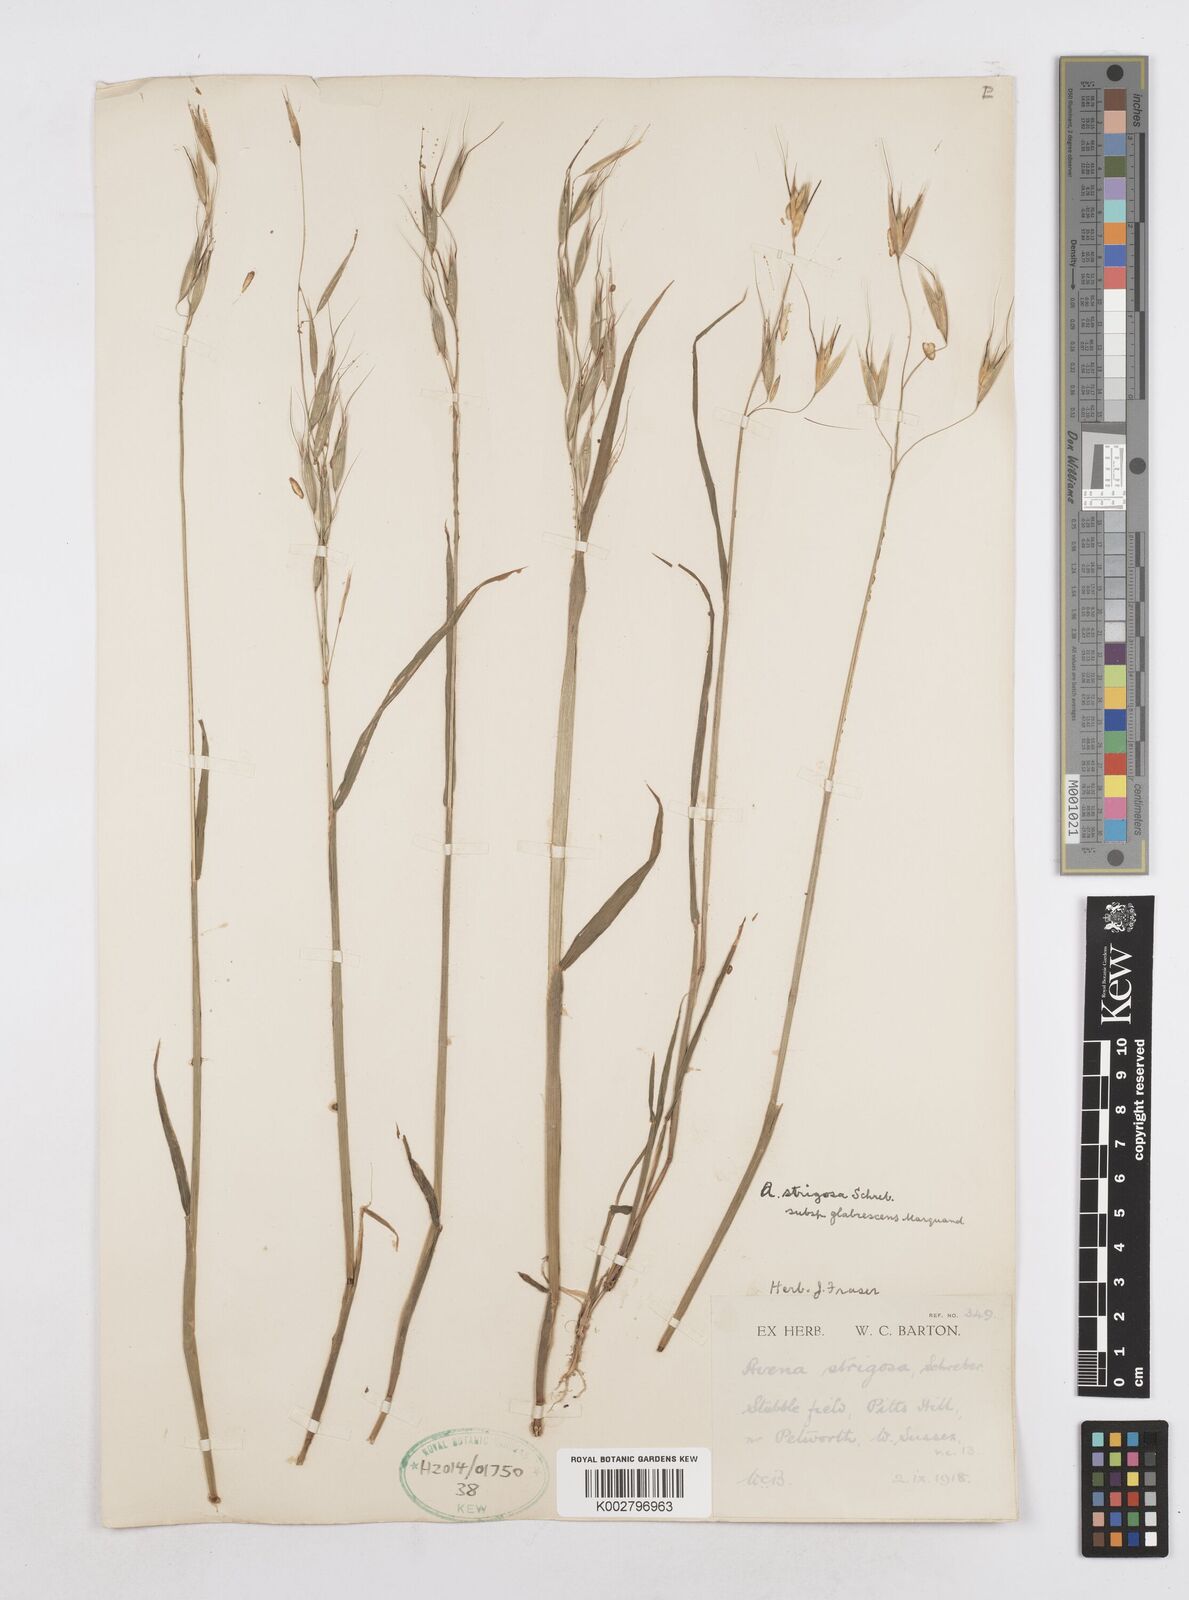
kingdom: Plantae
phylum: Tracheophyta
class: Liliopsida
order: Poales
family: Poaceae
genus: Avena
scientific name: Avena strigosa
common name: Bristle oat
